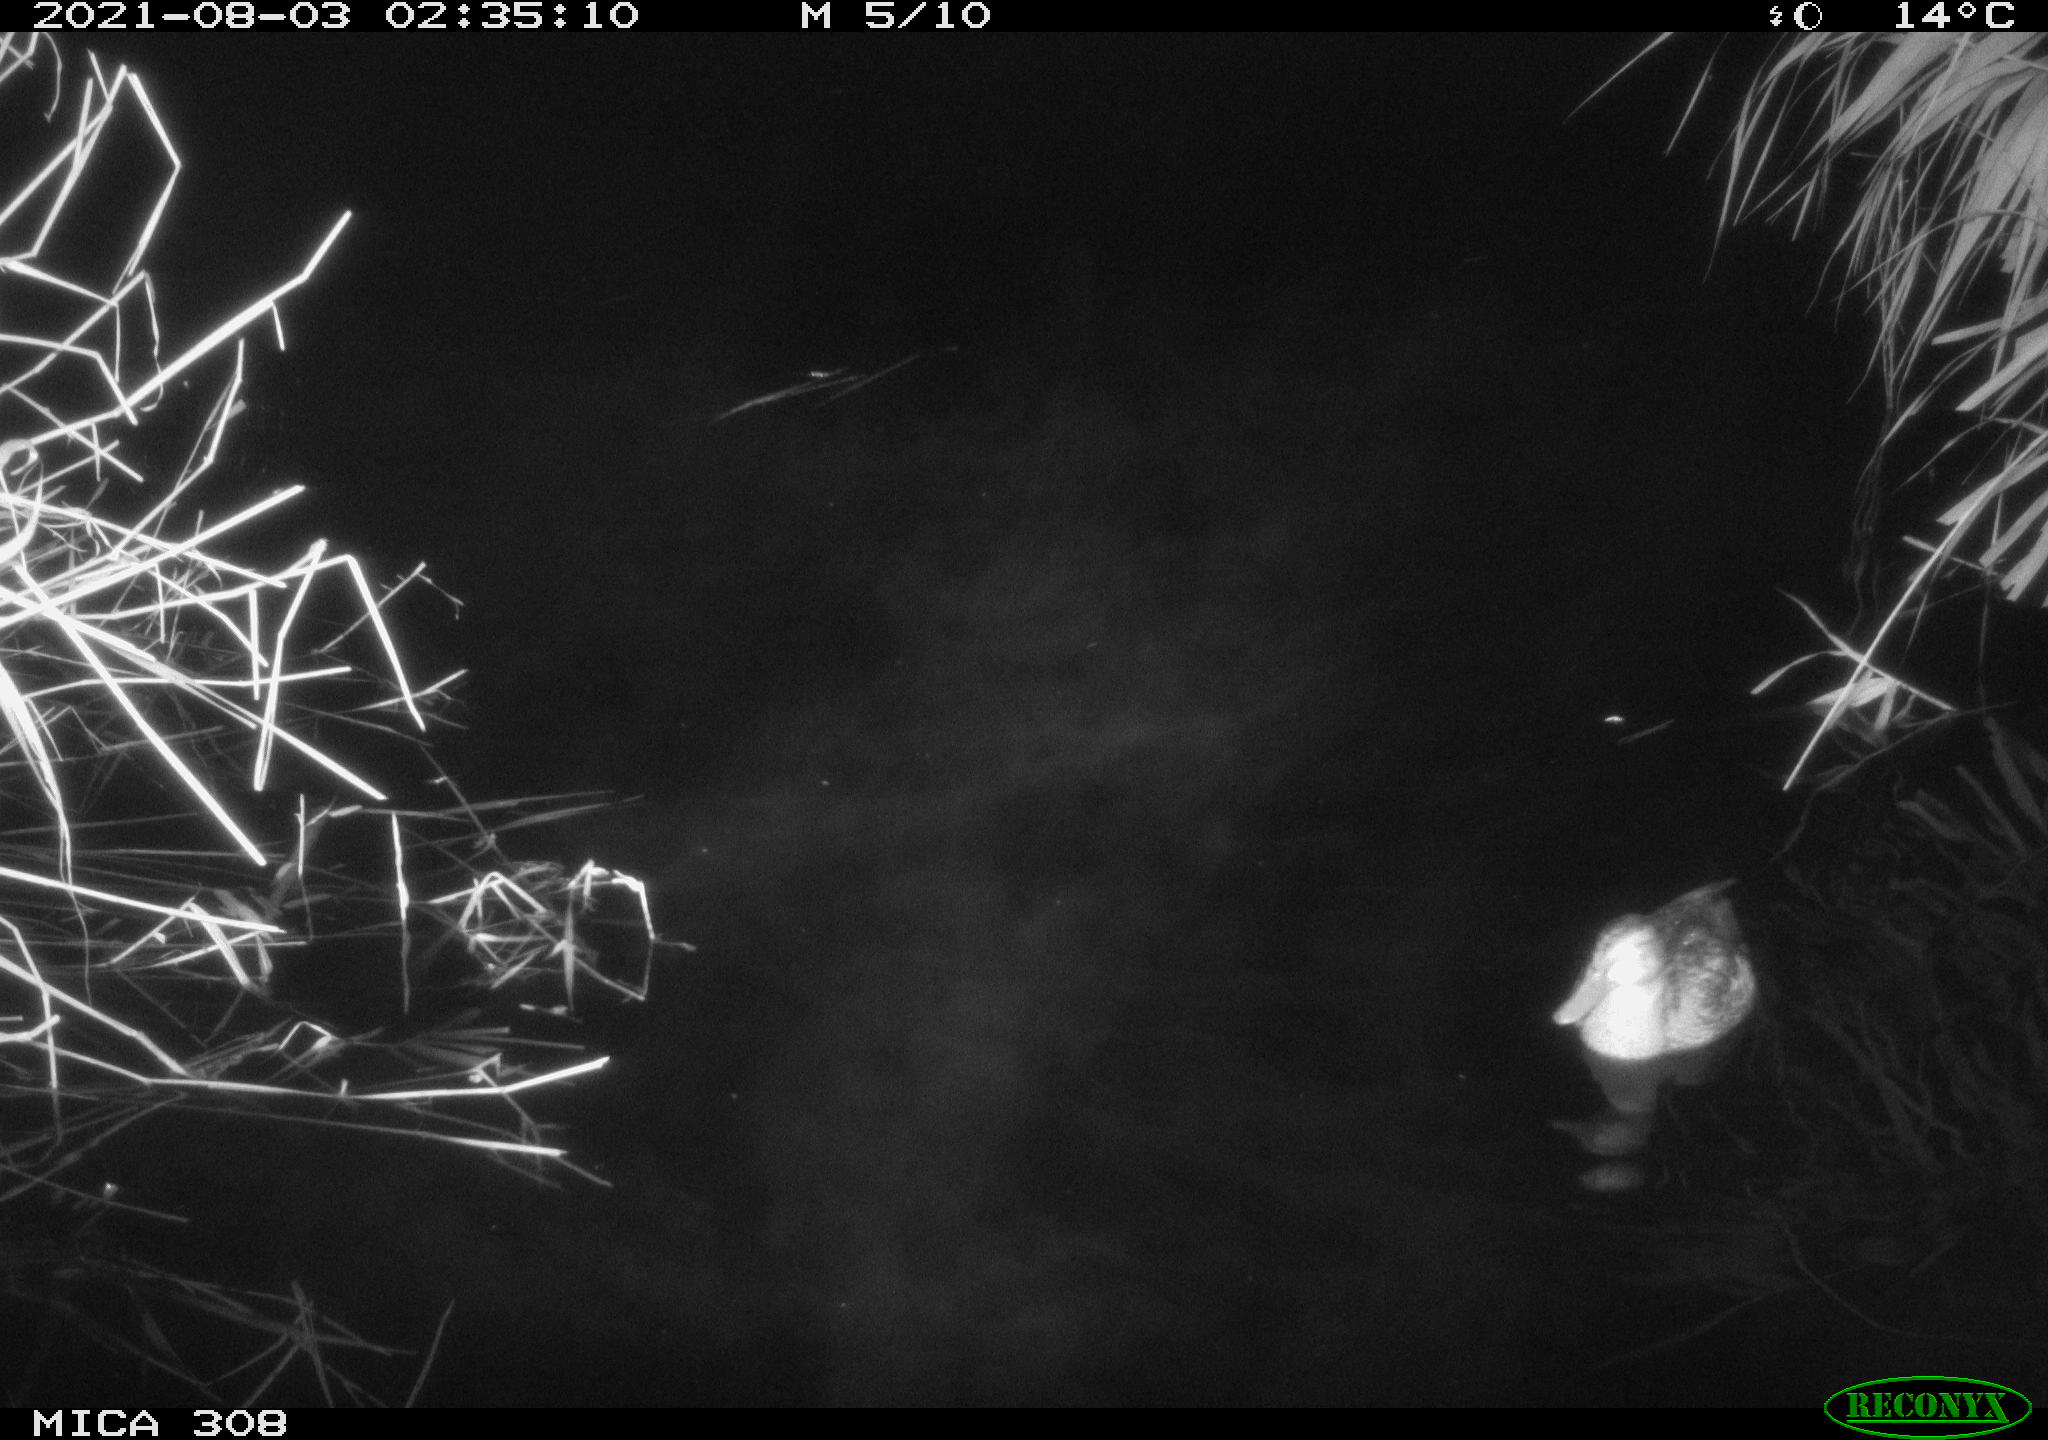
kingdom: Animalia
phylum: Chordata
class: Aves
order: Anseriformes
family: Anatidae
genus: Anas
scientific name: Anas platyrhynchos
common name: Mallard
